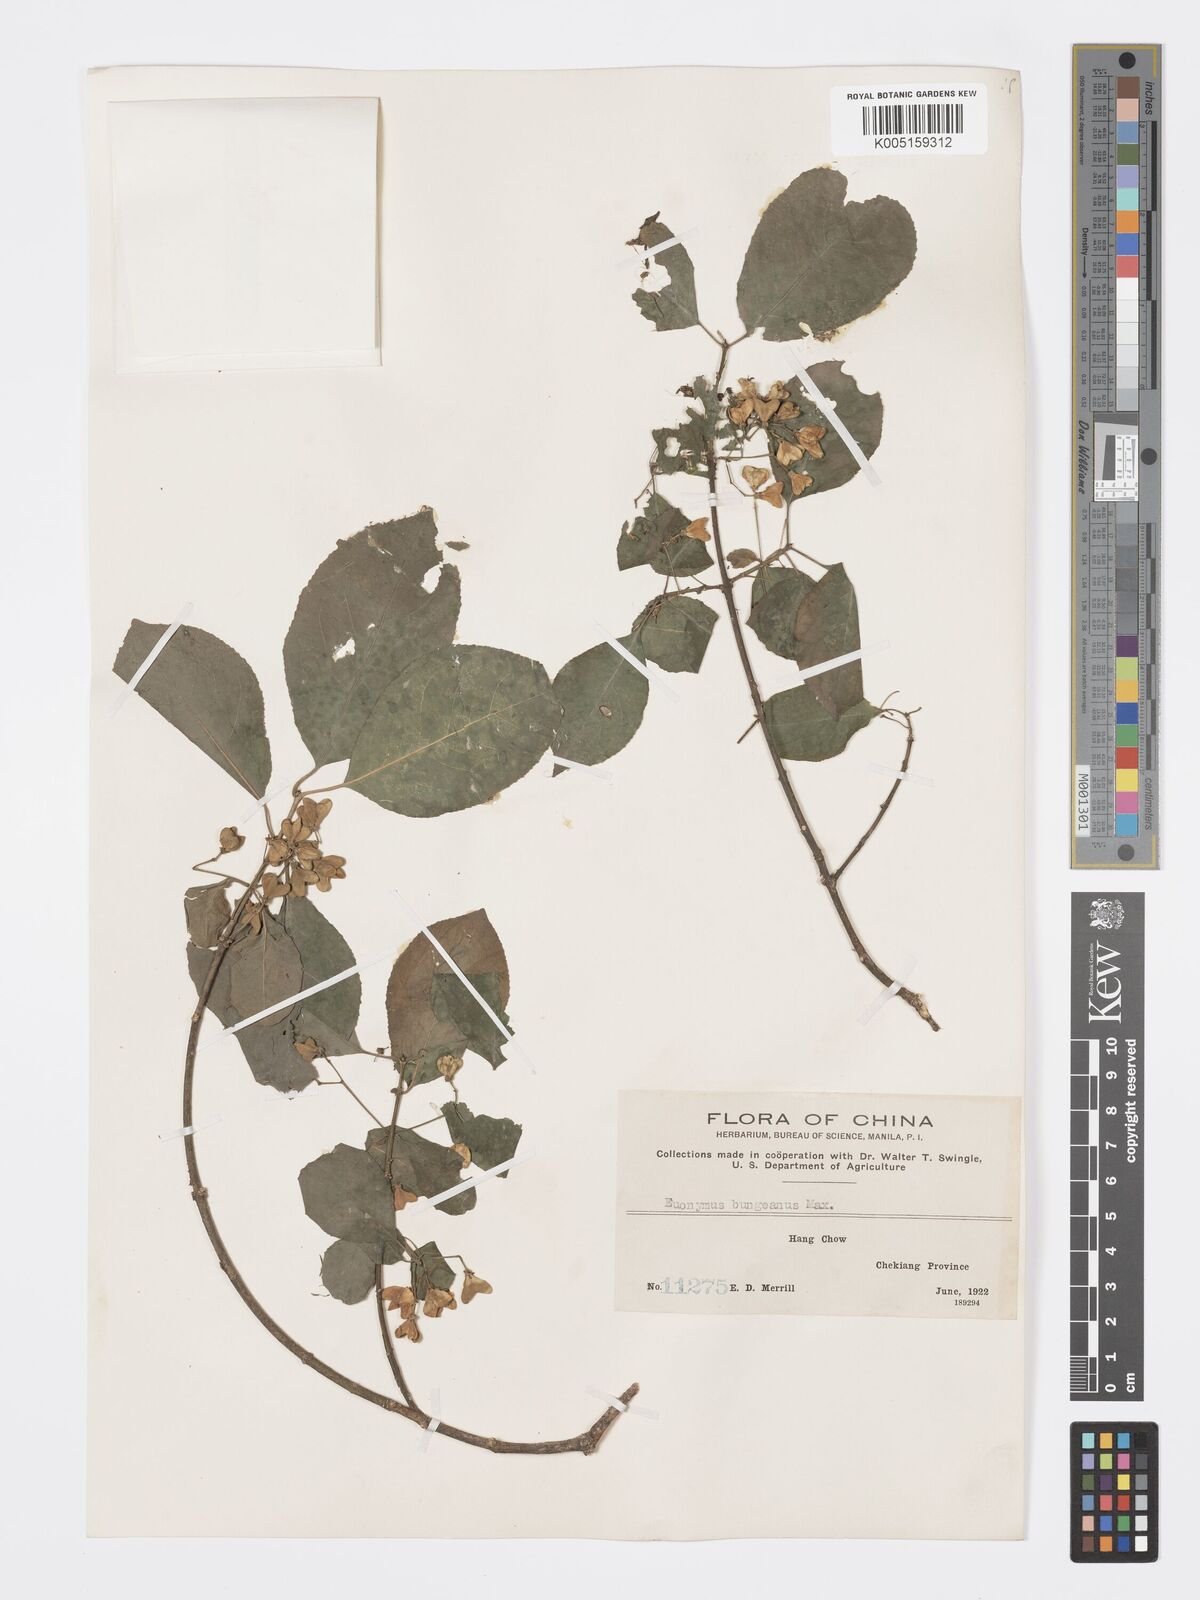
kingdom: Plantae
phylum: Tracheophyta
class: Magnoliopsida
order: Celastrales
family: Celastraceae
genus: Euonymus
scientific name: Euonymus maackii
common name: Hamilton's spindletree
